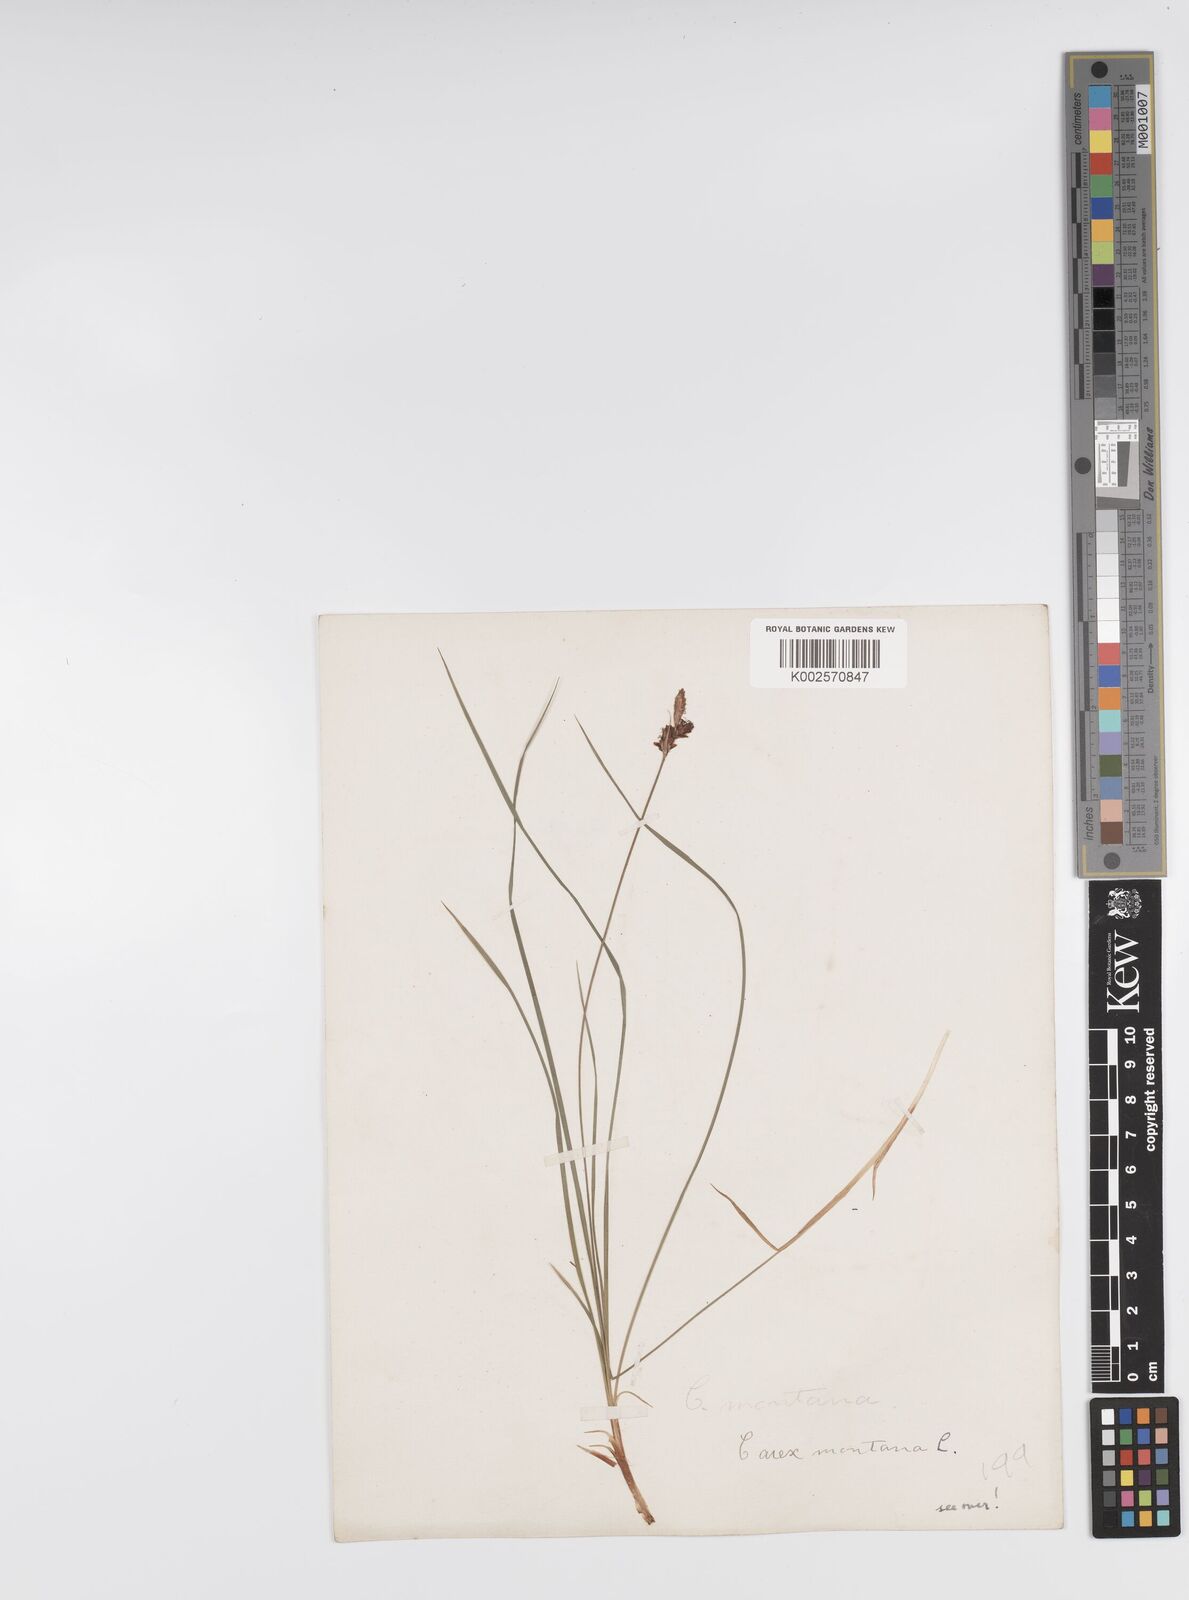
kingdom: Plantae
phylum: Tracheophyta
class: Liliopsida
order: Poales
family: Cyperaceae
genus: Carex
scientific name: Carex montana
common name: Soft-leaved sedge
